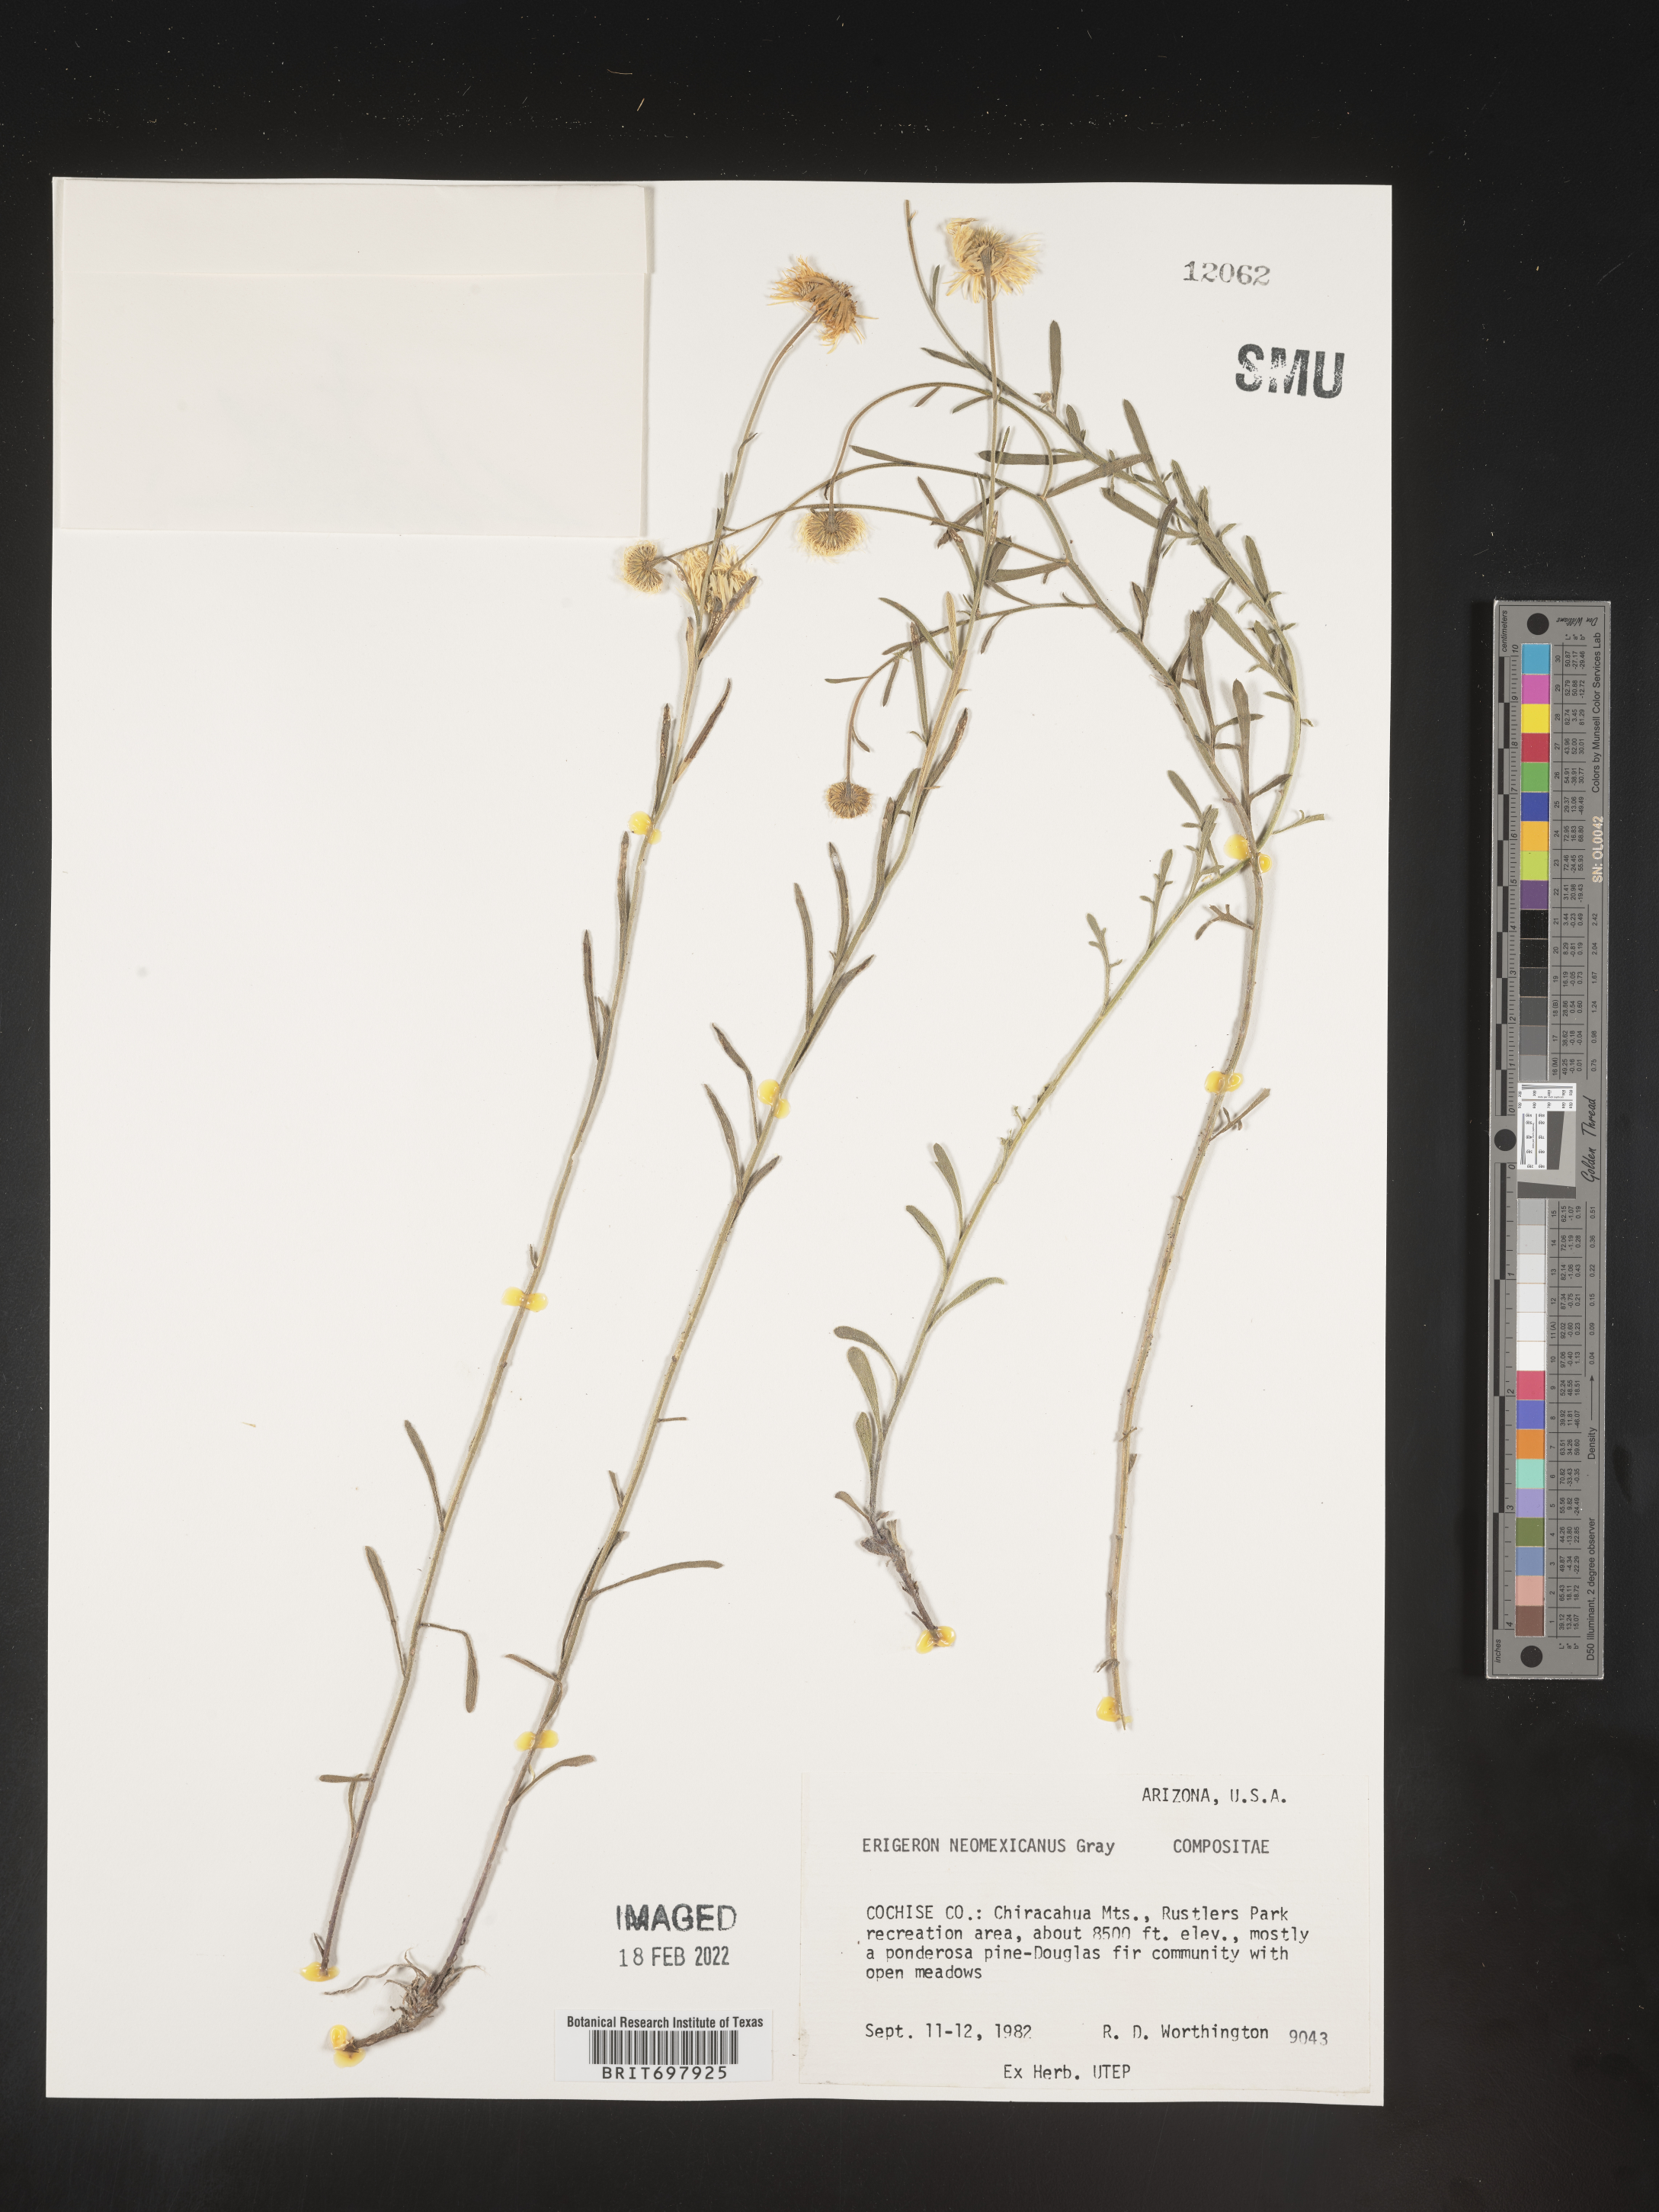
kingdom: Plantae
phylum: Tracheophyta
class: Magnoliopsida
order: Asterales
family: Asteraceae
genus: Erigeron
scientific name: Erigeron neomexicanus
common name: New mexico fleabane
